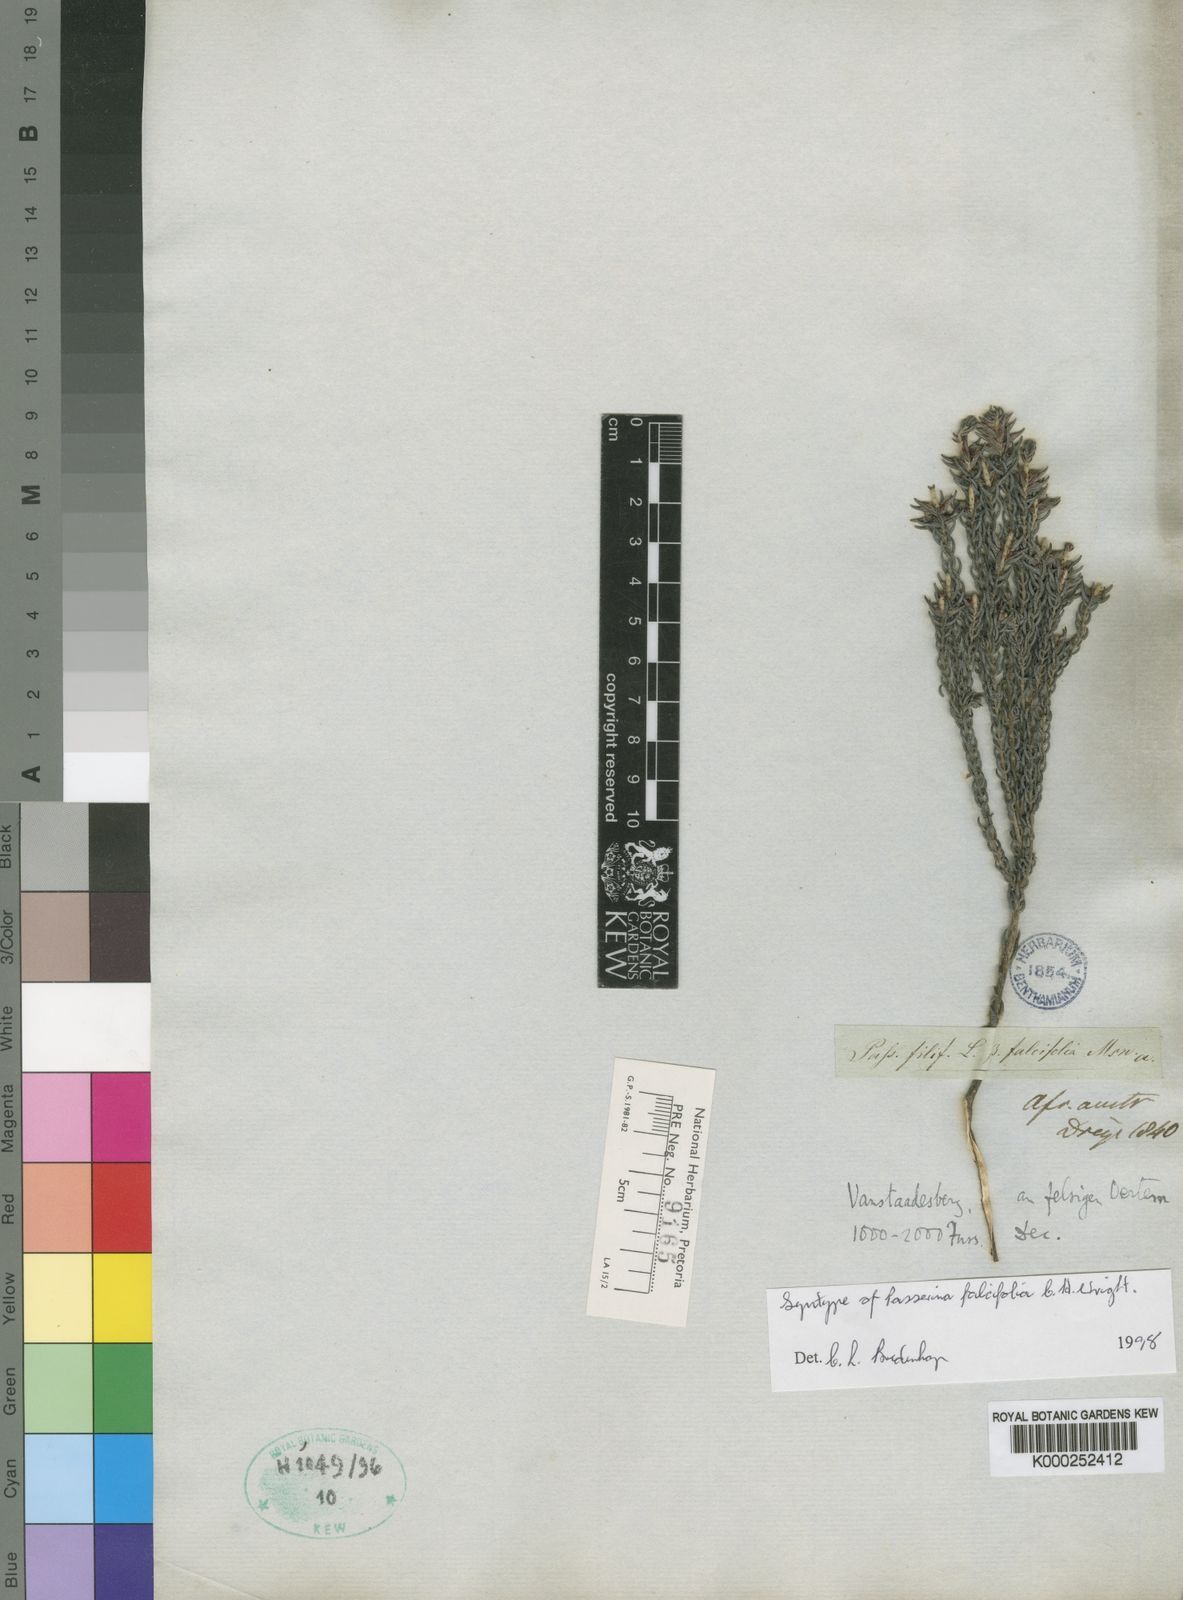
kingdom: Plantae
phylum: Tracheophyta
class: Magnoliopsida
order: Malvales
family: Thymelaeaceae
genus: Passerina
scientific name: Passerina falcifolia
